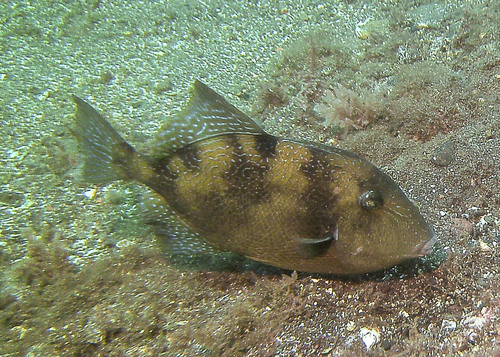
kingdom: Animalia
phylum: Chordata
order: Tetraodontiformes
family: Balistidae
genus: Balistes
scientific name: Balistes capriscus
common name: Grey triggerfish
